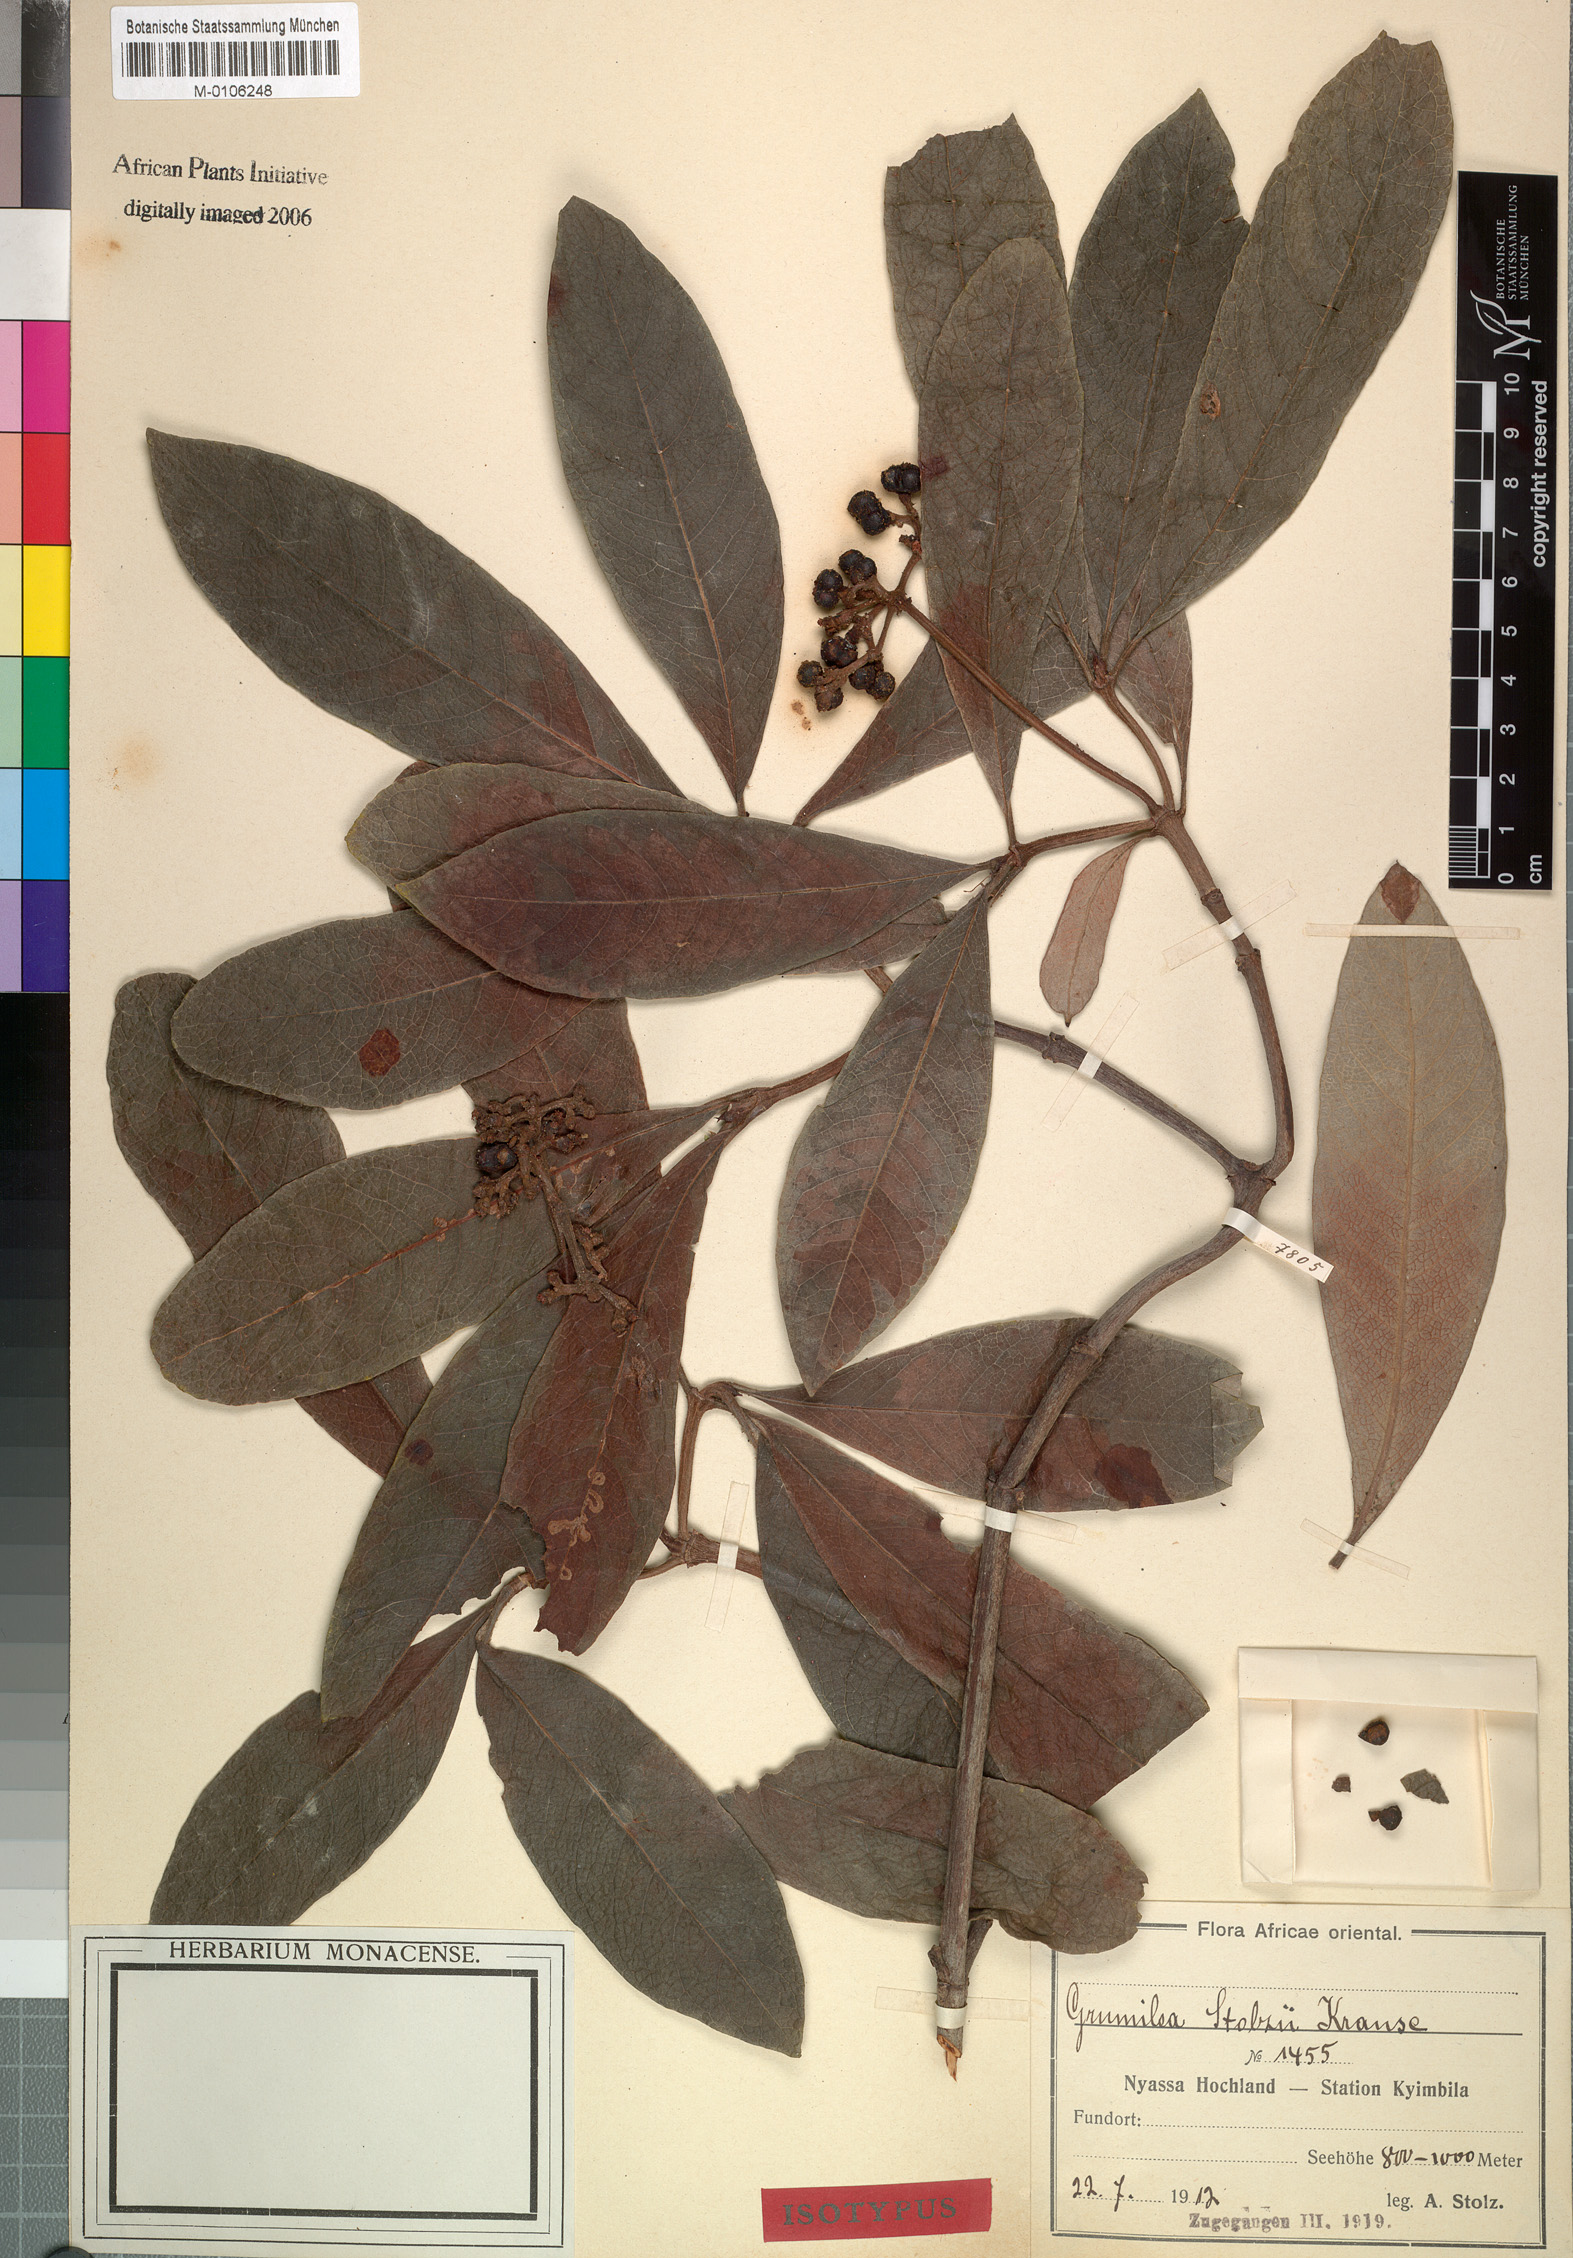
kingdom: Plantae
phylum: Tracheophyta
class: Magnoliopsida
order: Gentianales
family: Rubiaceae
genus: Psychotria
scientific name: Psychotria eminiana
